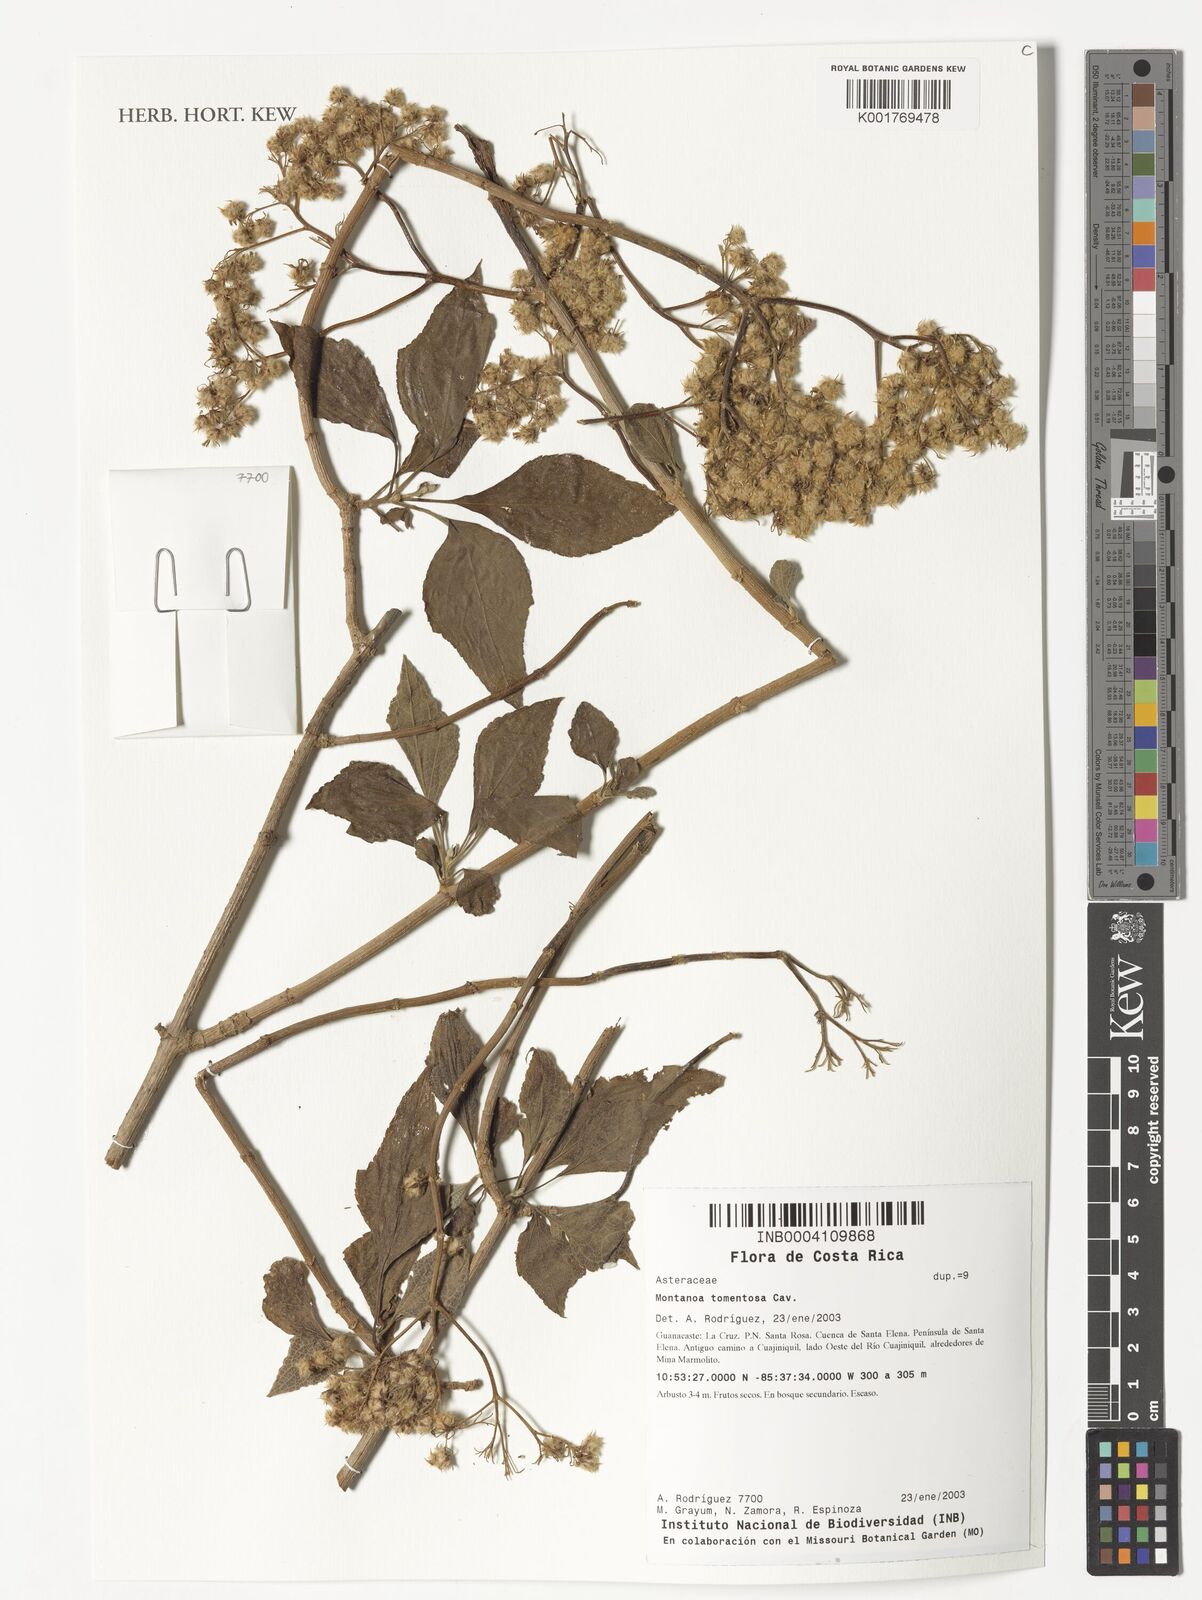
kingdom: Plantae
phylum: Tracheophyta
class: Magnoliopsida
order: Asterales
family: Asteraceae
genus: Montanoa
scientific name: Montanoa tomentosa
